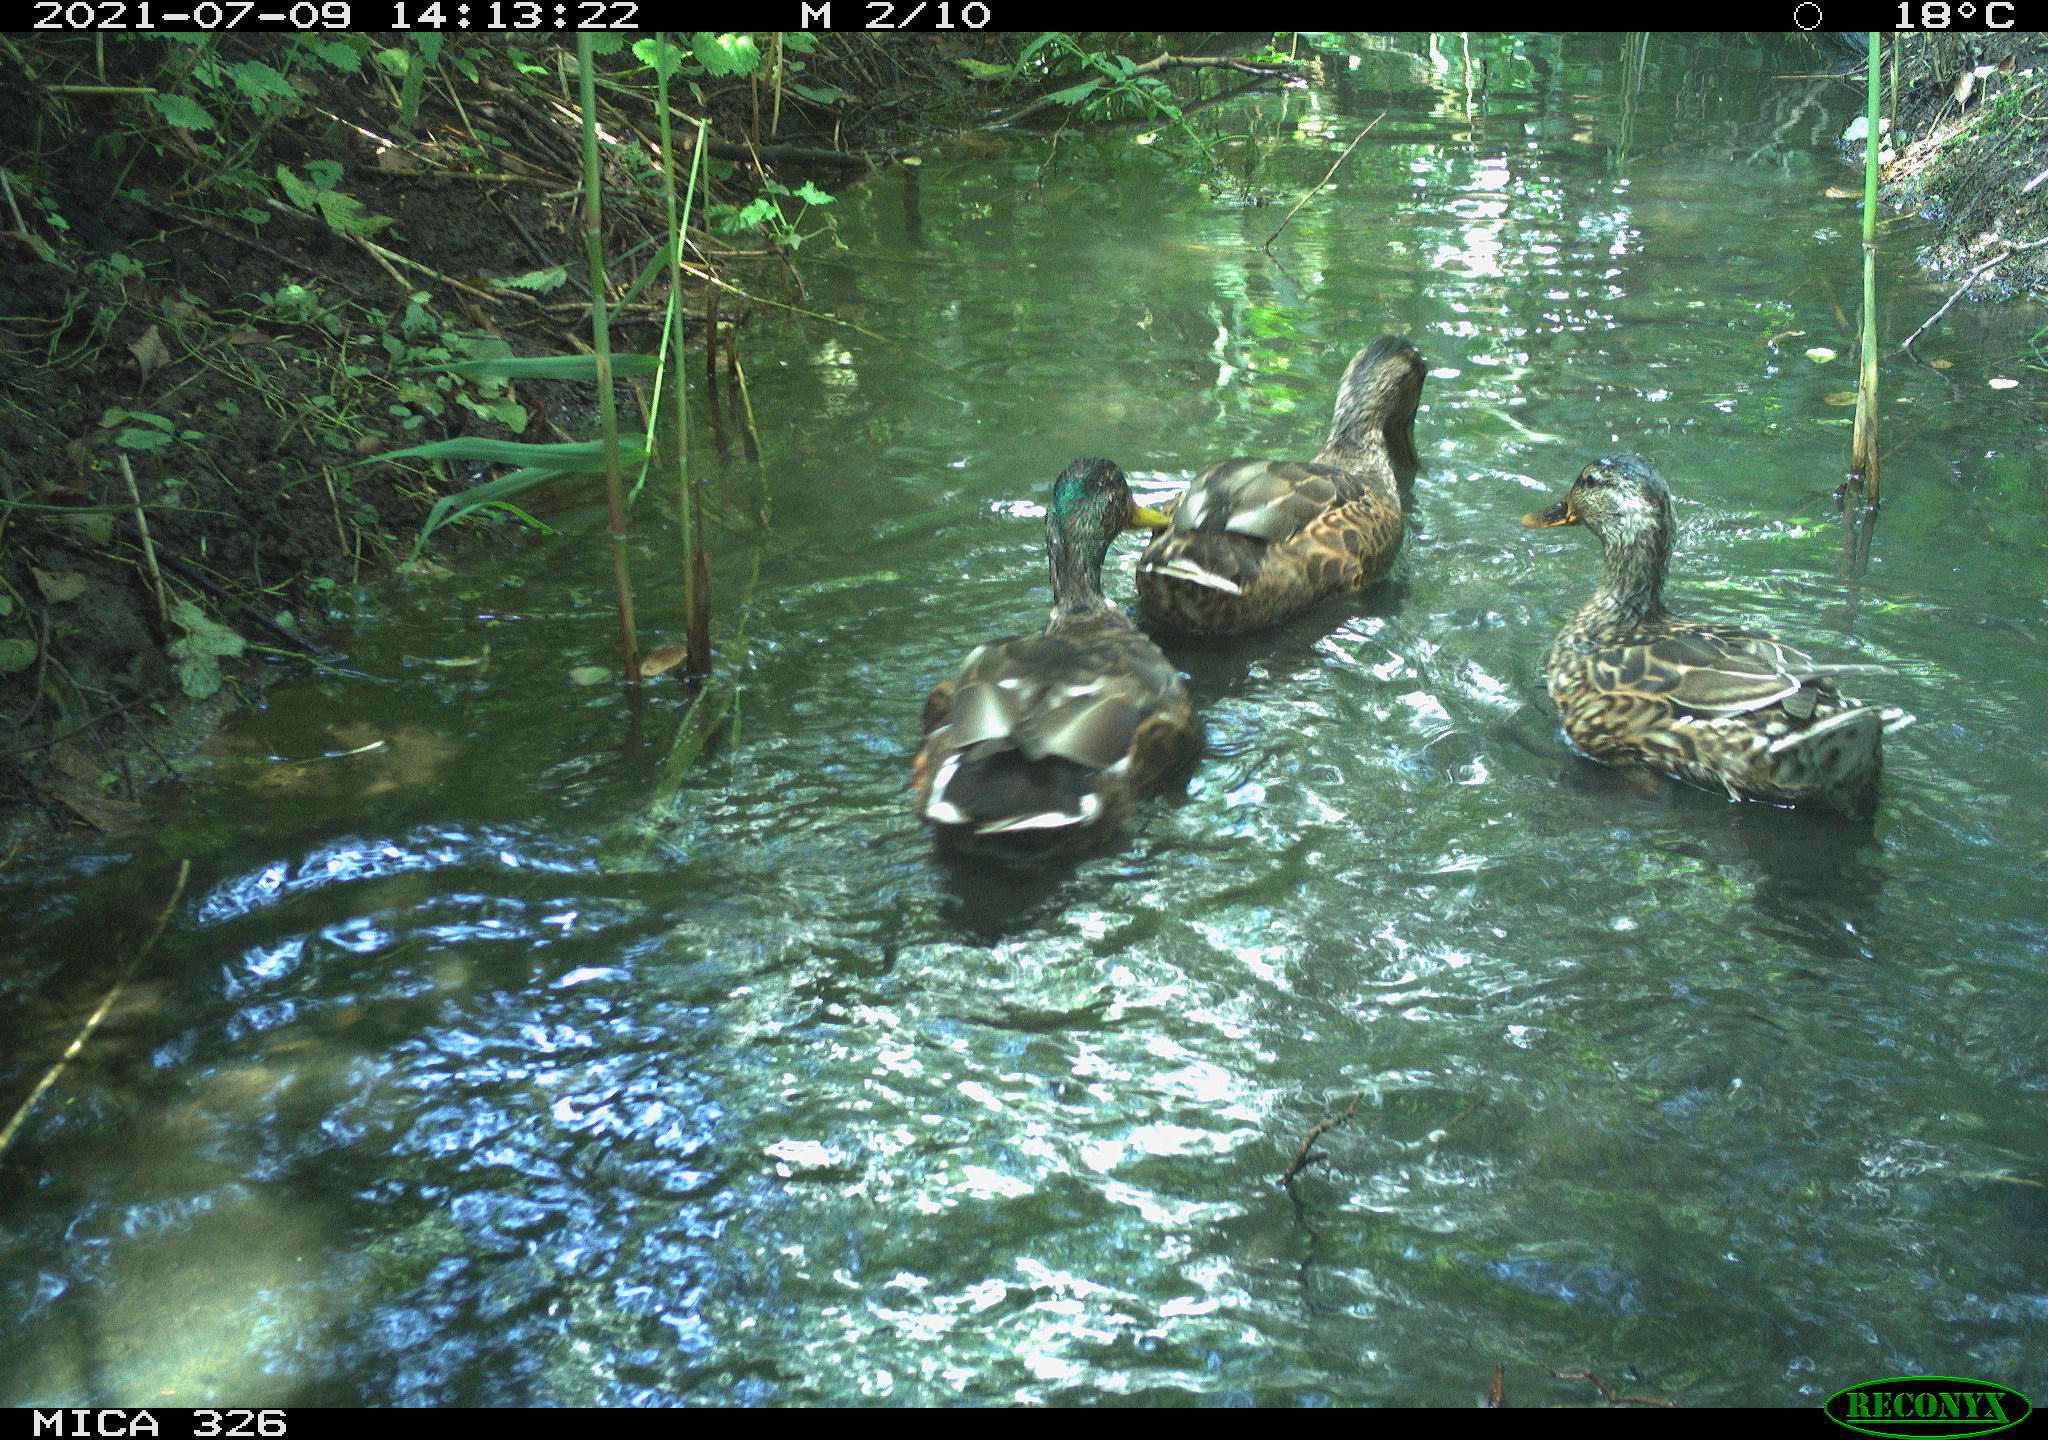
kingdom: Animalia
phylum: Chordata
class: Aves
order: Anseriformes
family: Anatidae
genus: Anas
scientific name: Anas platyrhynchos
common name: Mallard
